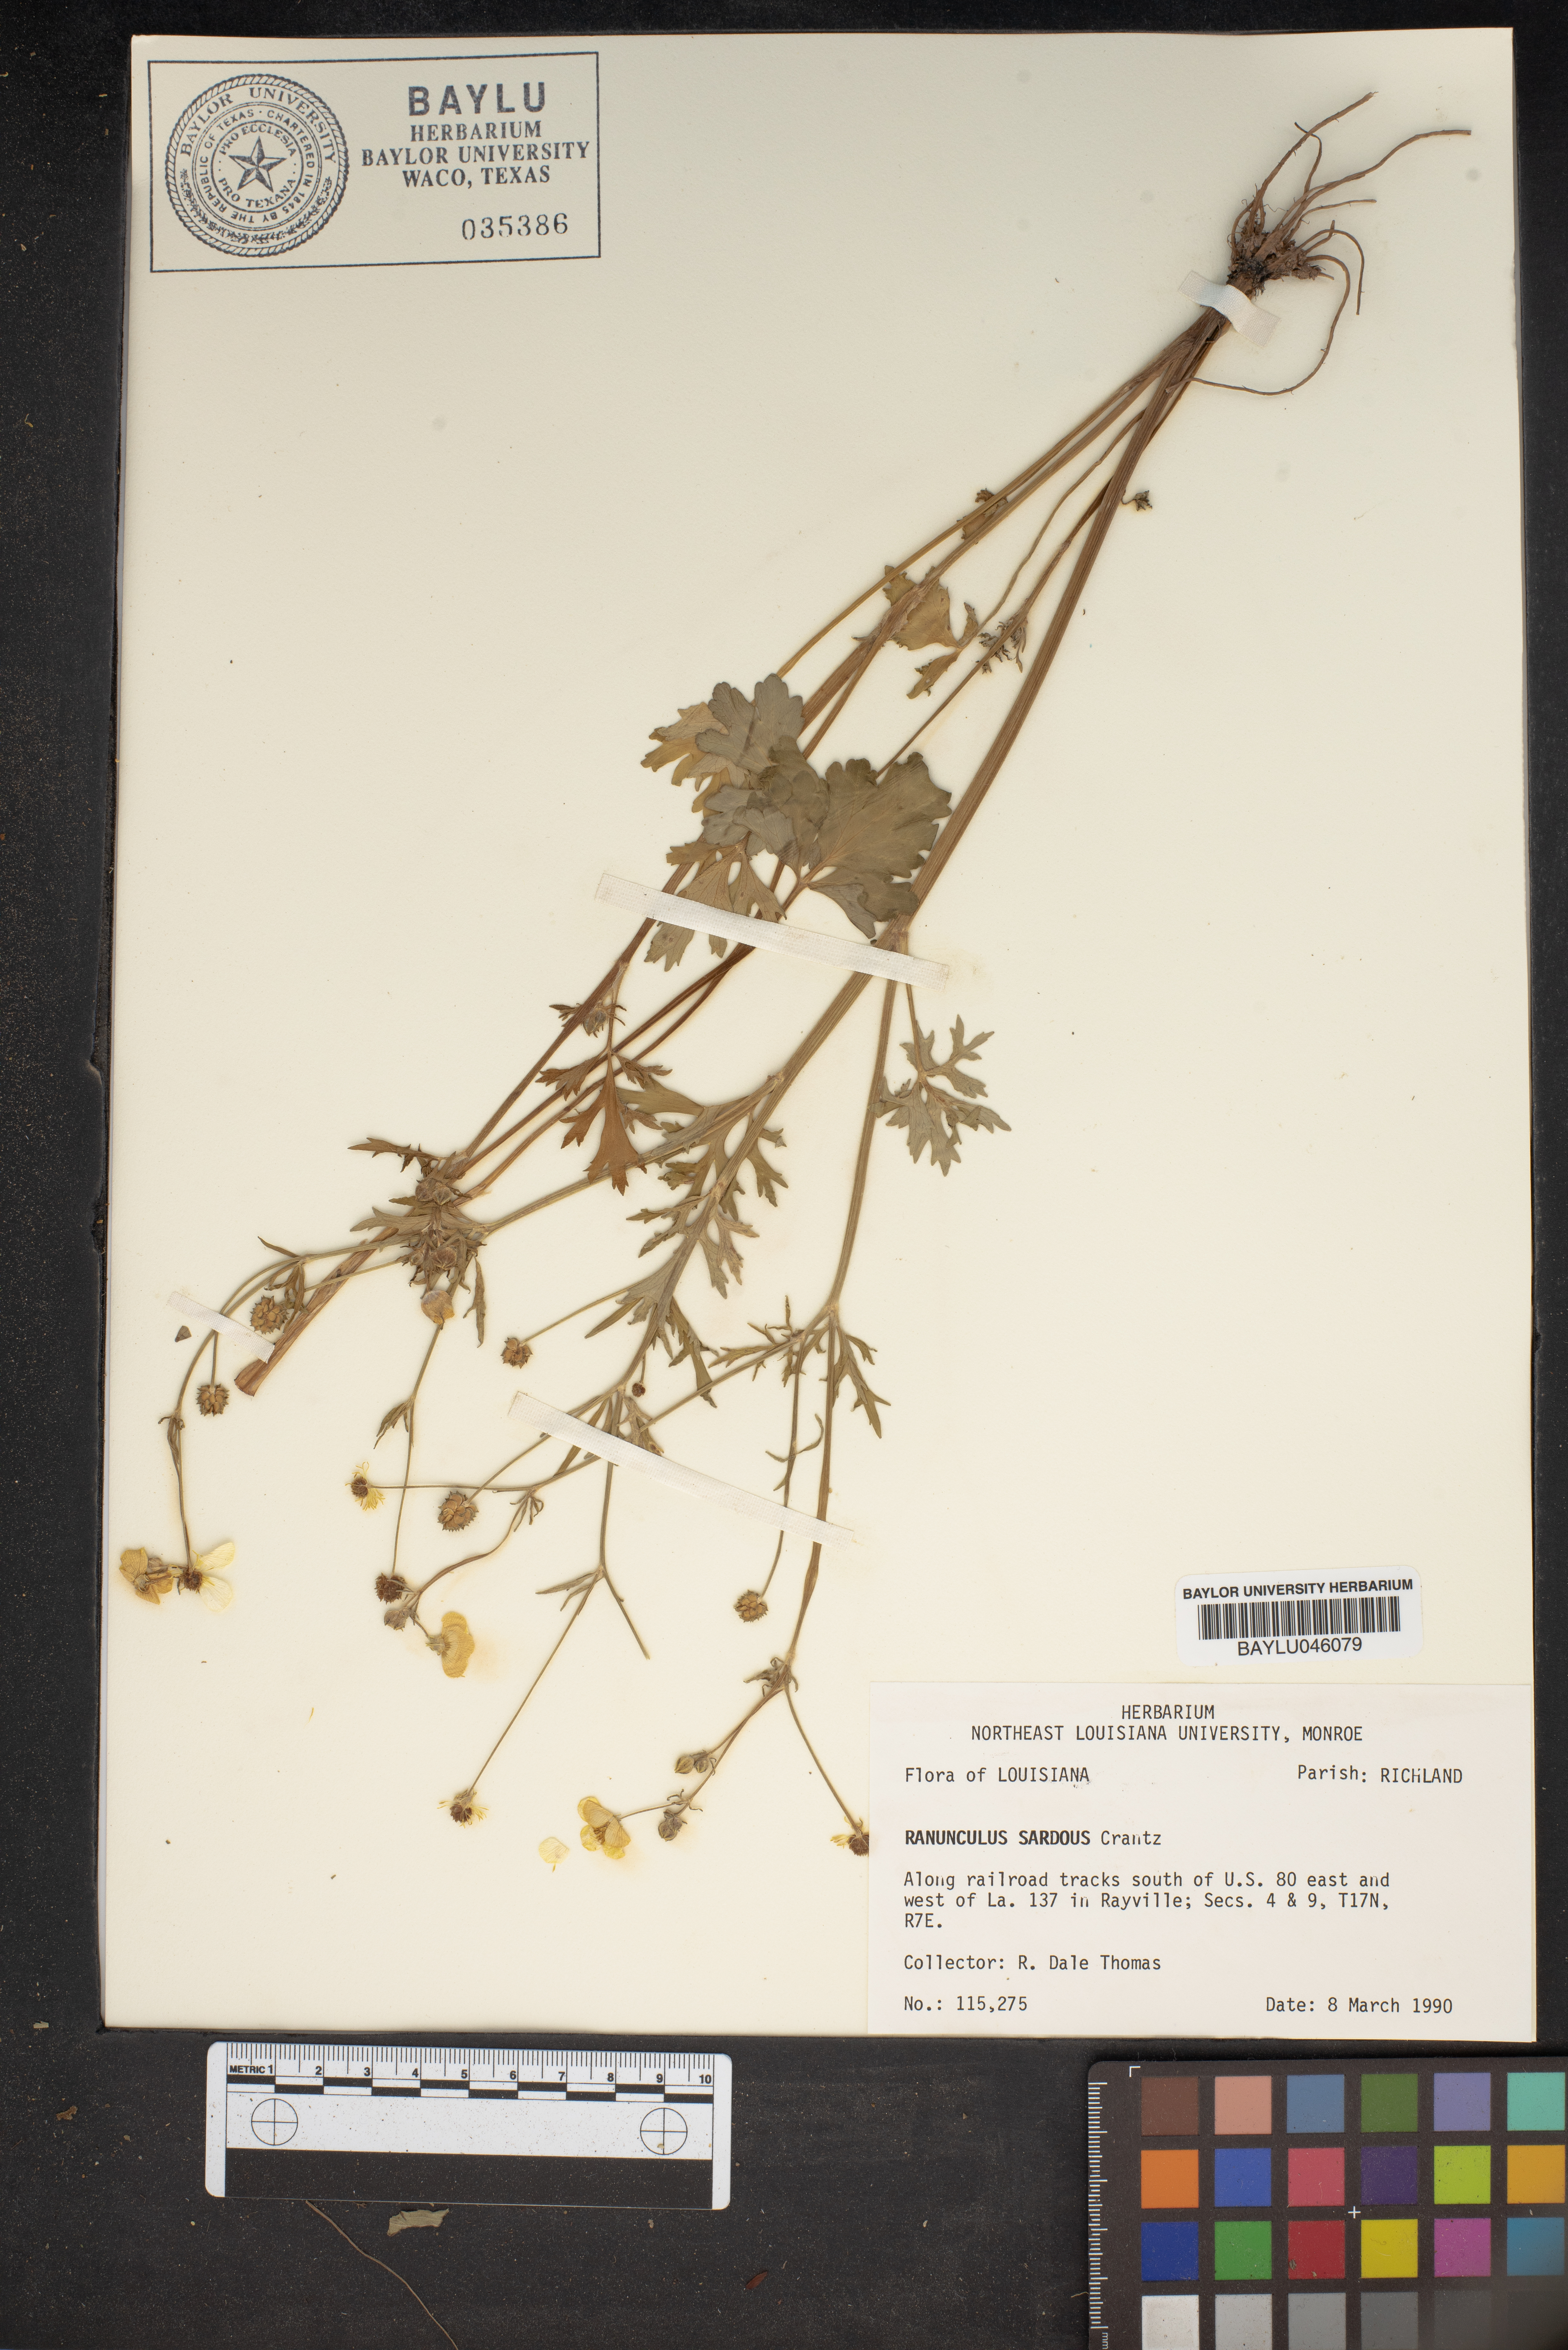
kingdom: Plantae
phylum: Tracheophyta
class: Magnoliopsida
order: Ranunculales
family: Ranunculaceae
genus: Ranunculus
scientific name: Ranunculus sardous
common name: Hairy buttercup
